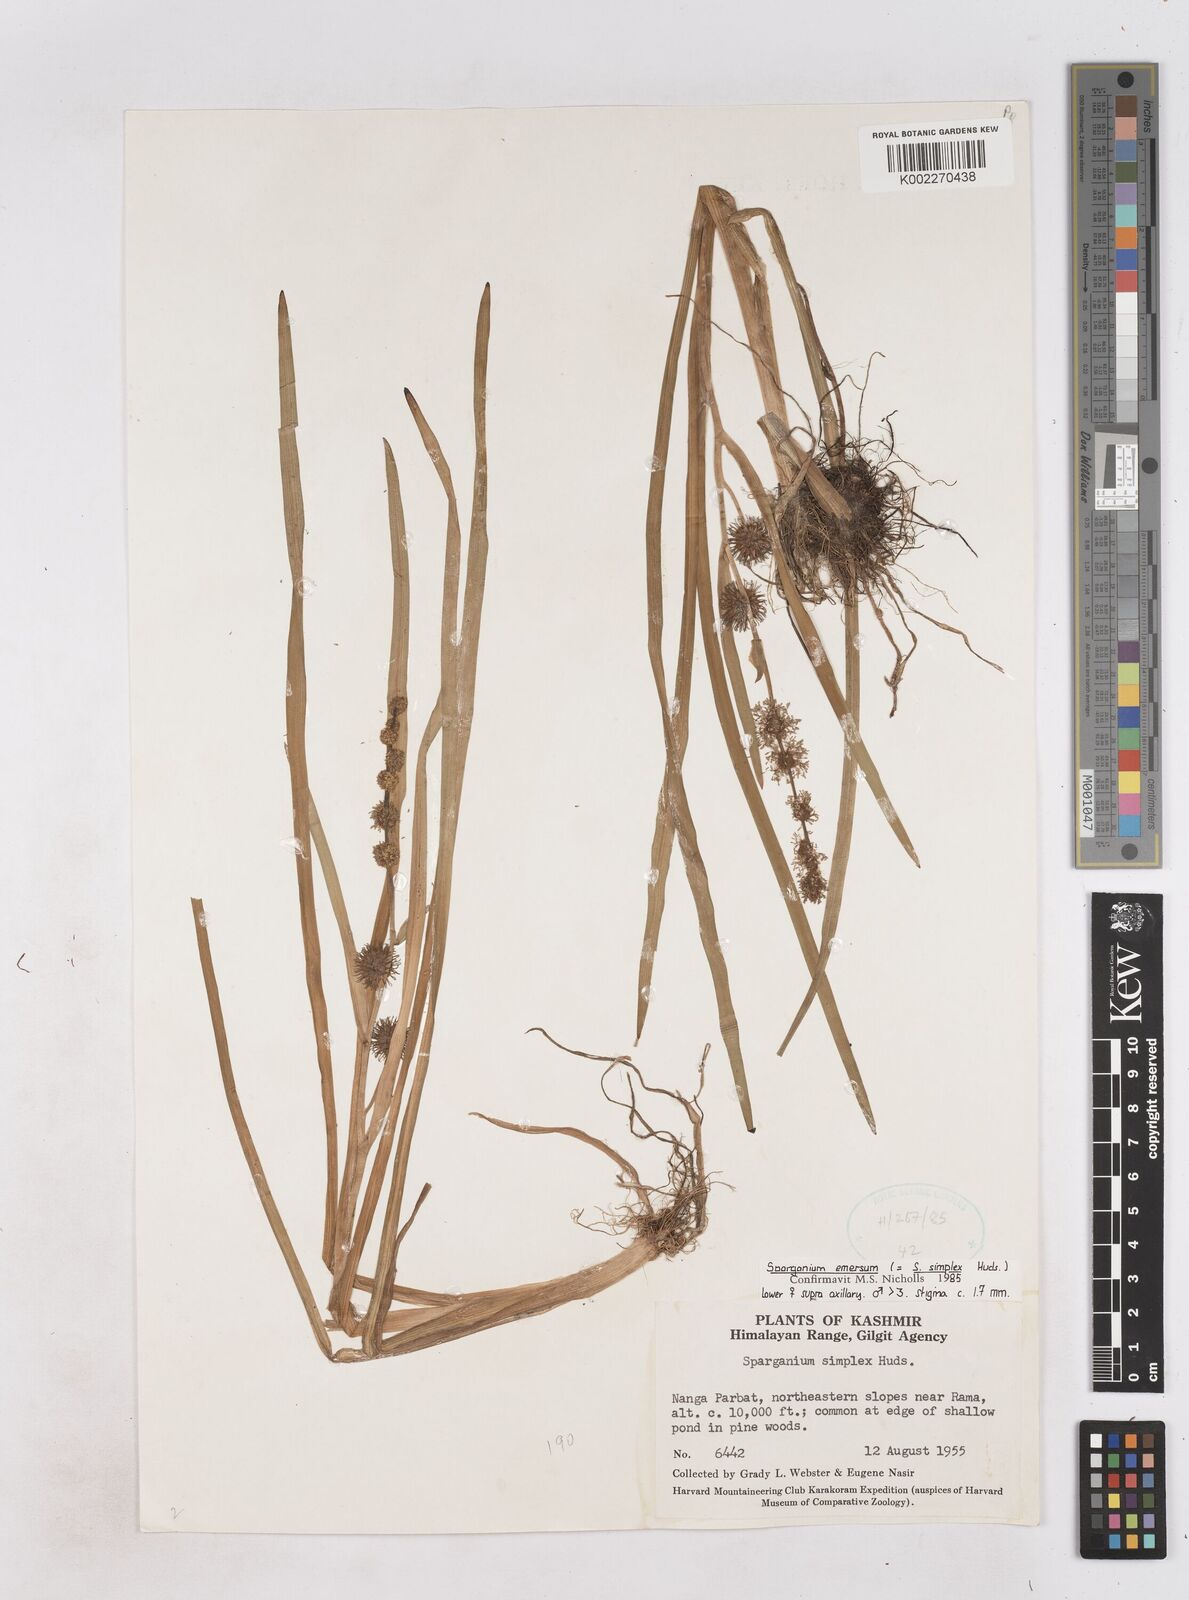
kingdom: Plantae
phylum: Tracheophyta
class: Liliopsida
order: Poales
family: Typhaceae
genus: Sparganium
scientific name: Sparganium emersum
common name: Unbranched bur-reed
